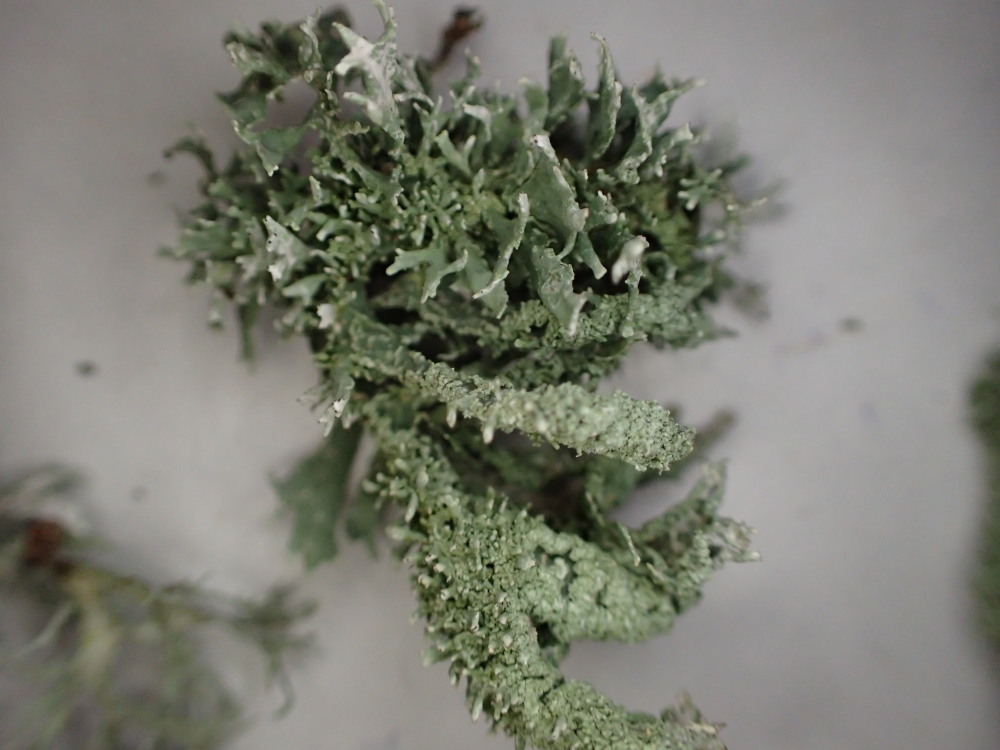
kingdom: Fungi
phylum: Ascomycota
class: Lecanoromycetes
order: Lecanorales
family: Parmeliaceae
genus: Evernia
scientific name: Evernia prunastri
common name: almindelig slåenlav
